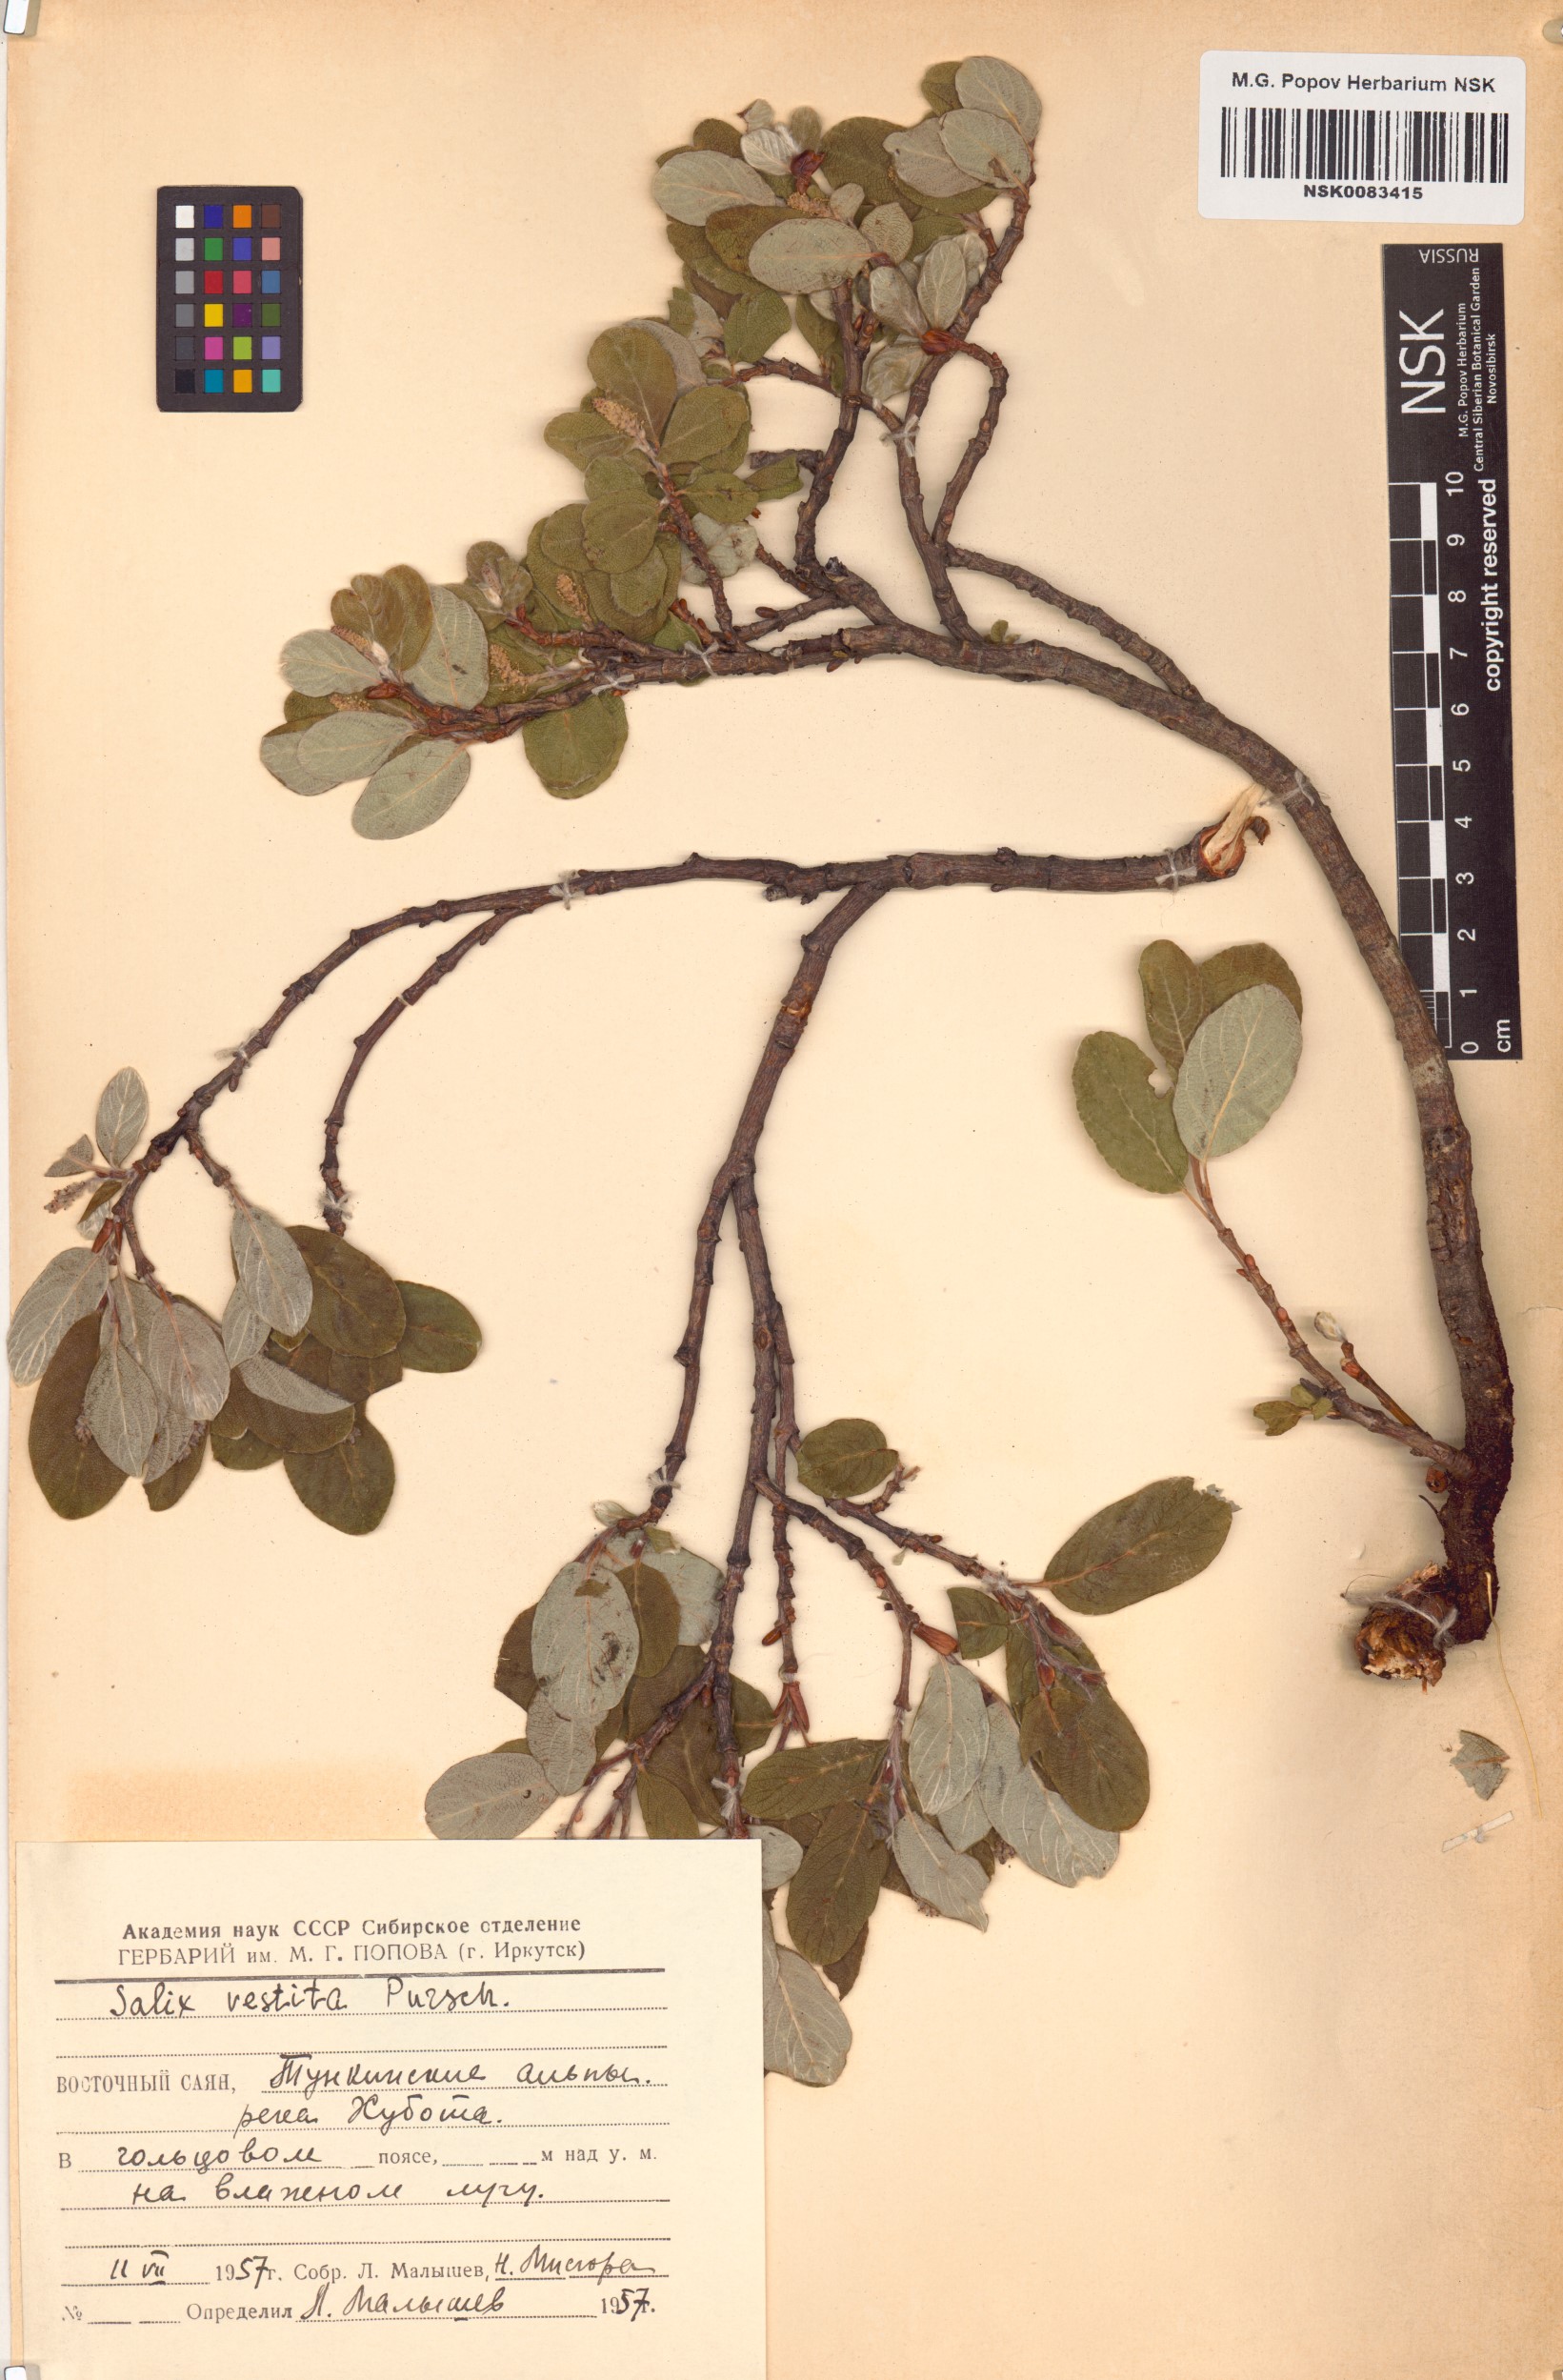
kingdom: Plantae
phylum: Tracheophyta
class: Magnoliopsida
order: Malpighiales
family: Salicaceae
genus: Salix
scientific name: Salix vestita
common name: Hairy willow
